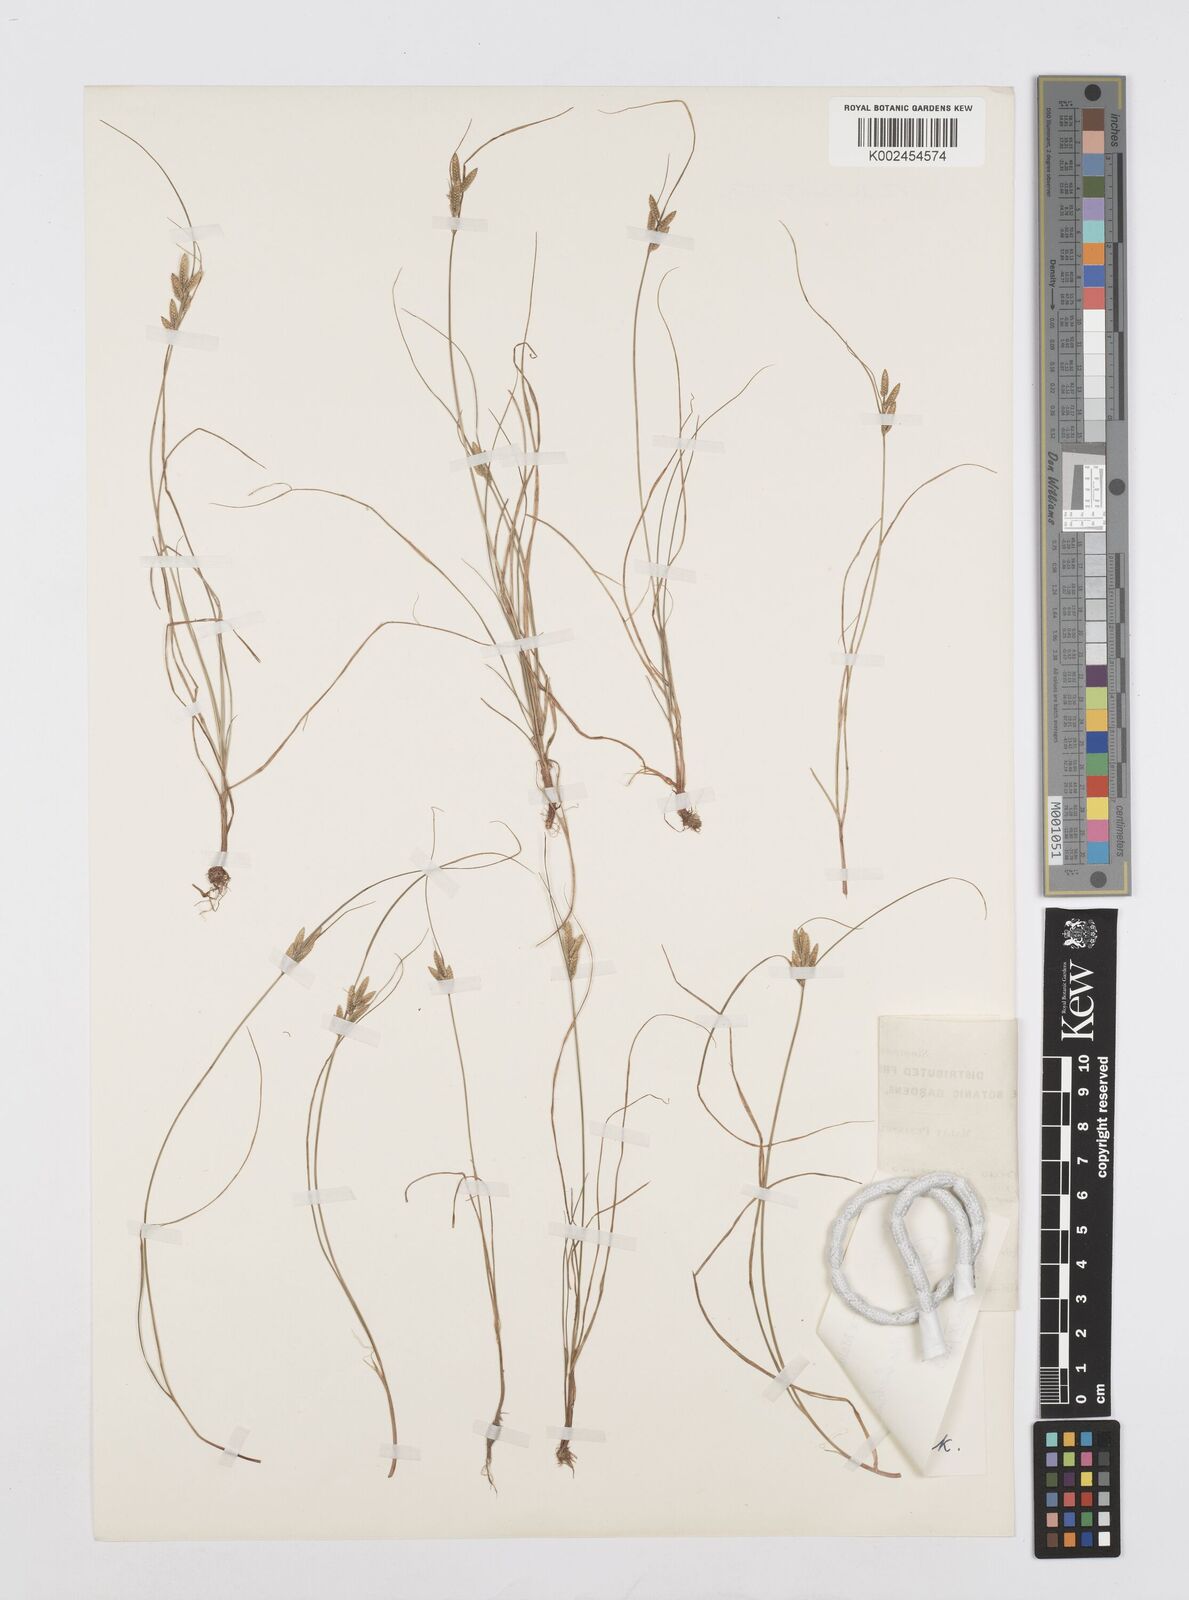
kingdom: Plantae
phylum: Tracheophyta
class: Liliopsida
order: Poales
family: Cyperaceae
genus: Cyperus
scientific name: Cyperus substramineus
